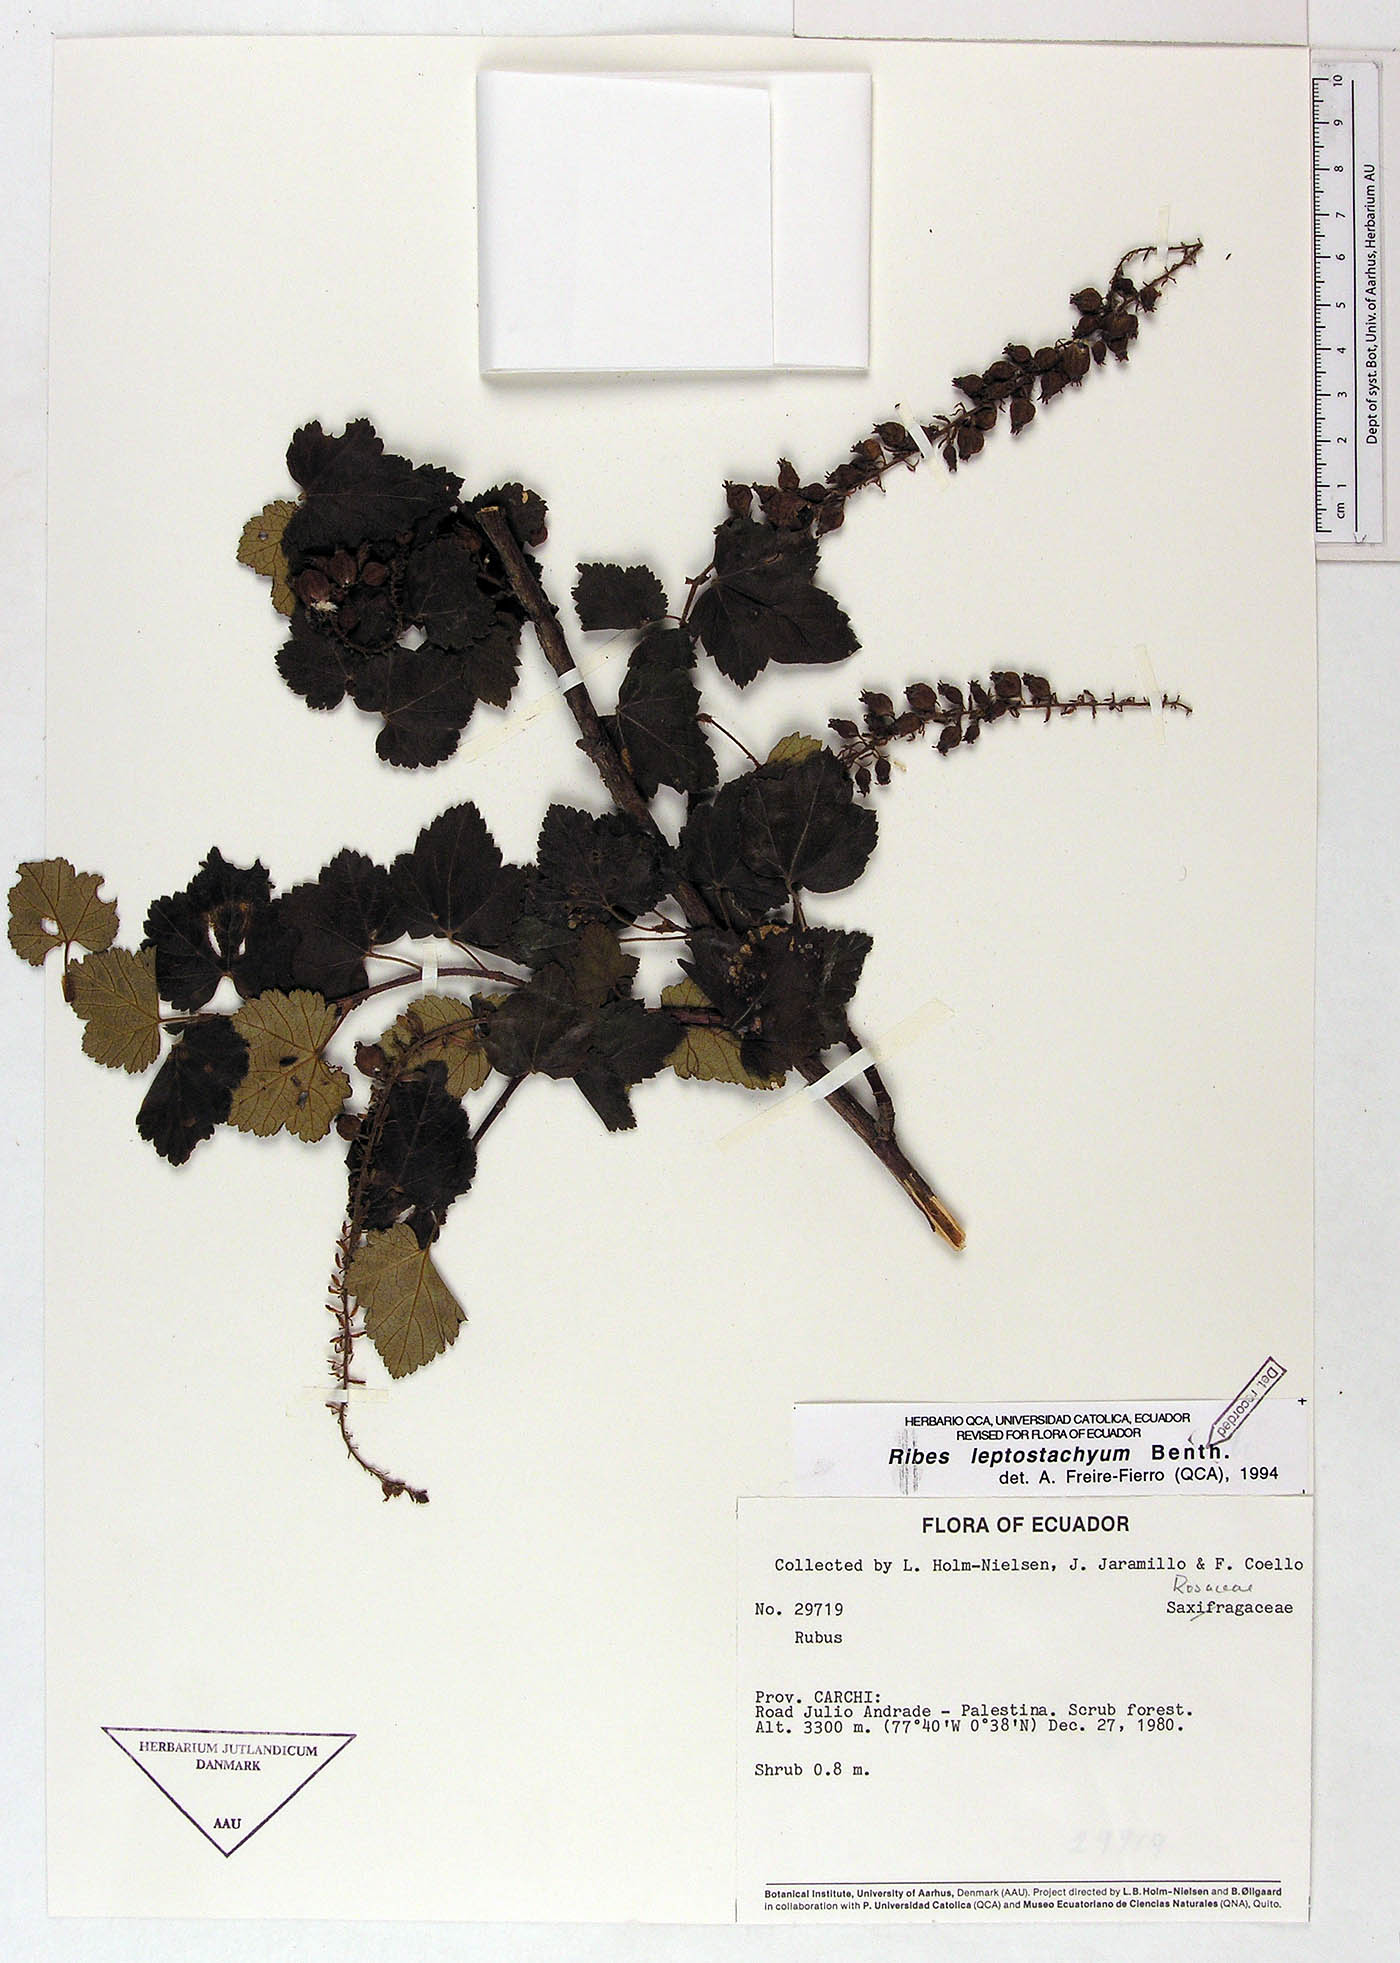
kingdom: Plantae
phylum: Tracheophyta
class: Magnoliopsida
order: Saxifragales
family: Grossulariaceae
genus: Ribes
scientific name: Ribes leptostachyum
